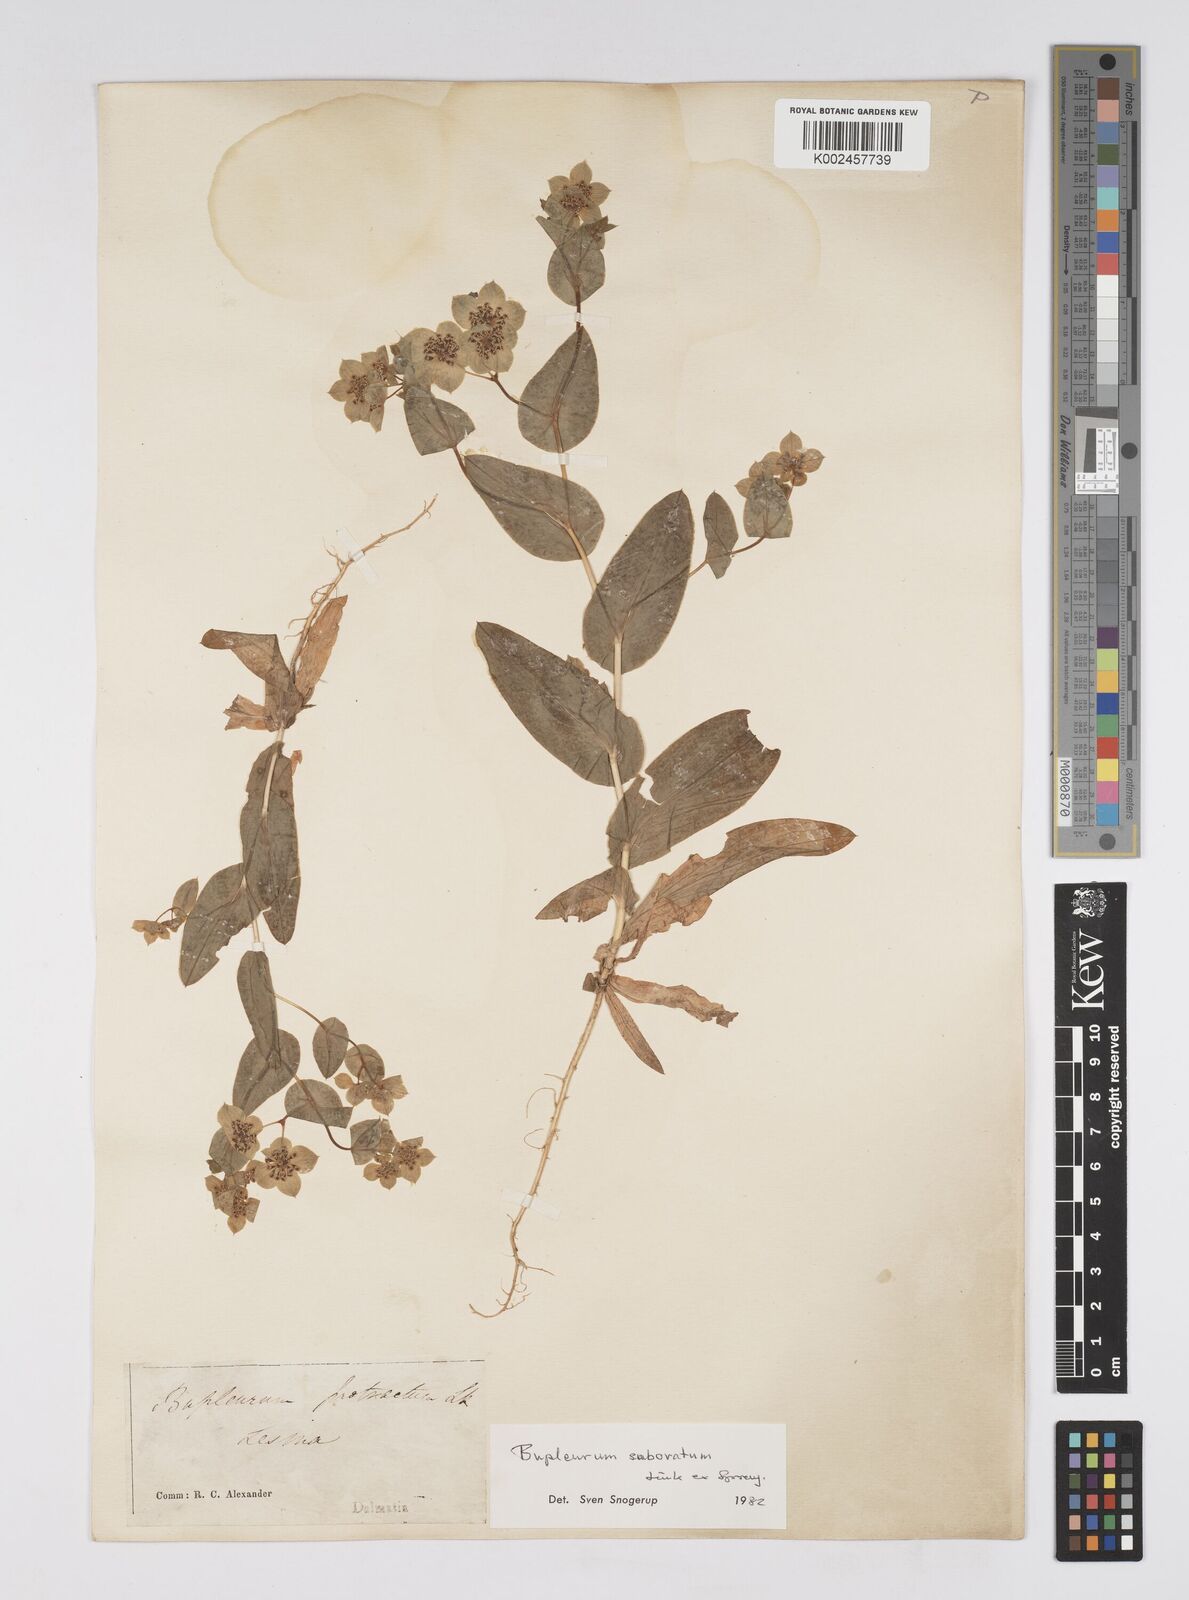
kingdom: Plantae
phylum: Tracheophyta
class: Magnoliopsida
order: Apiales
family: Apiaceae
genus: Bupleurum
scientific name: Bupleurum subovatum
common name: False thorow-wax
